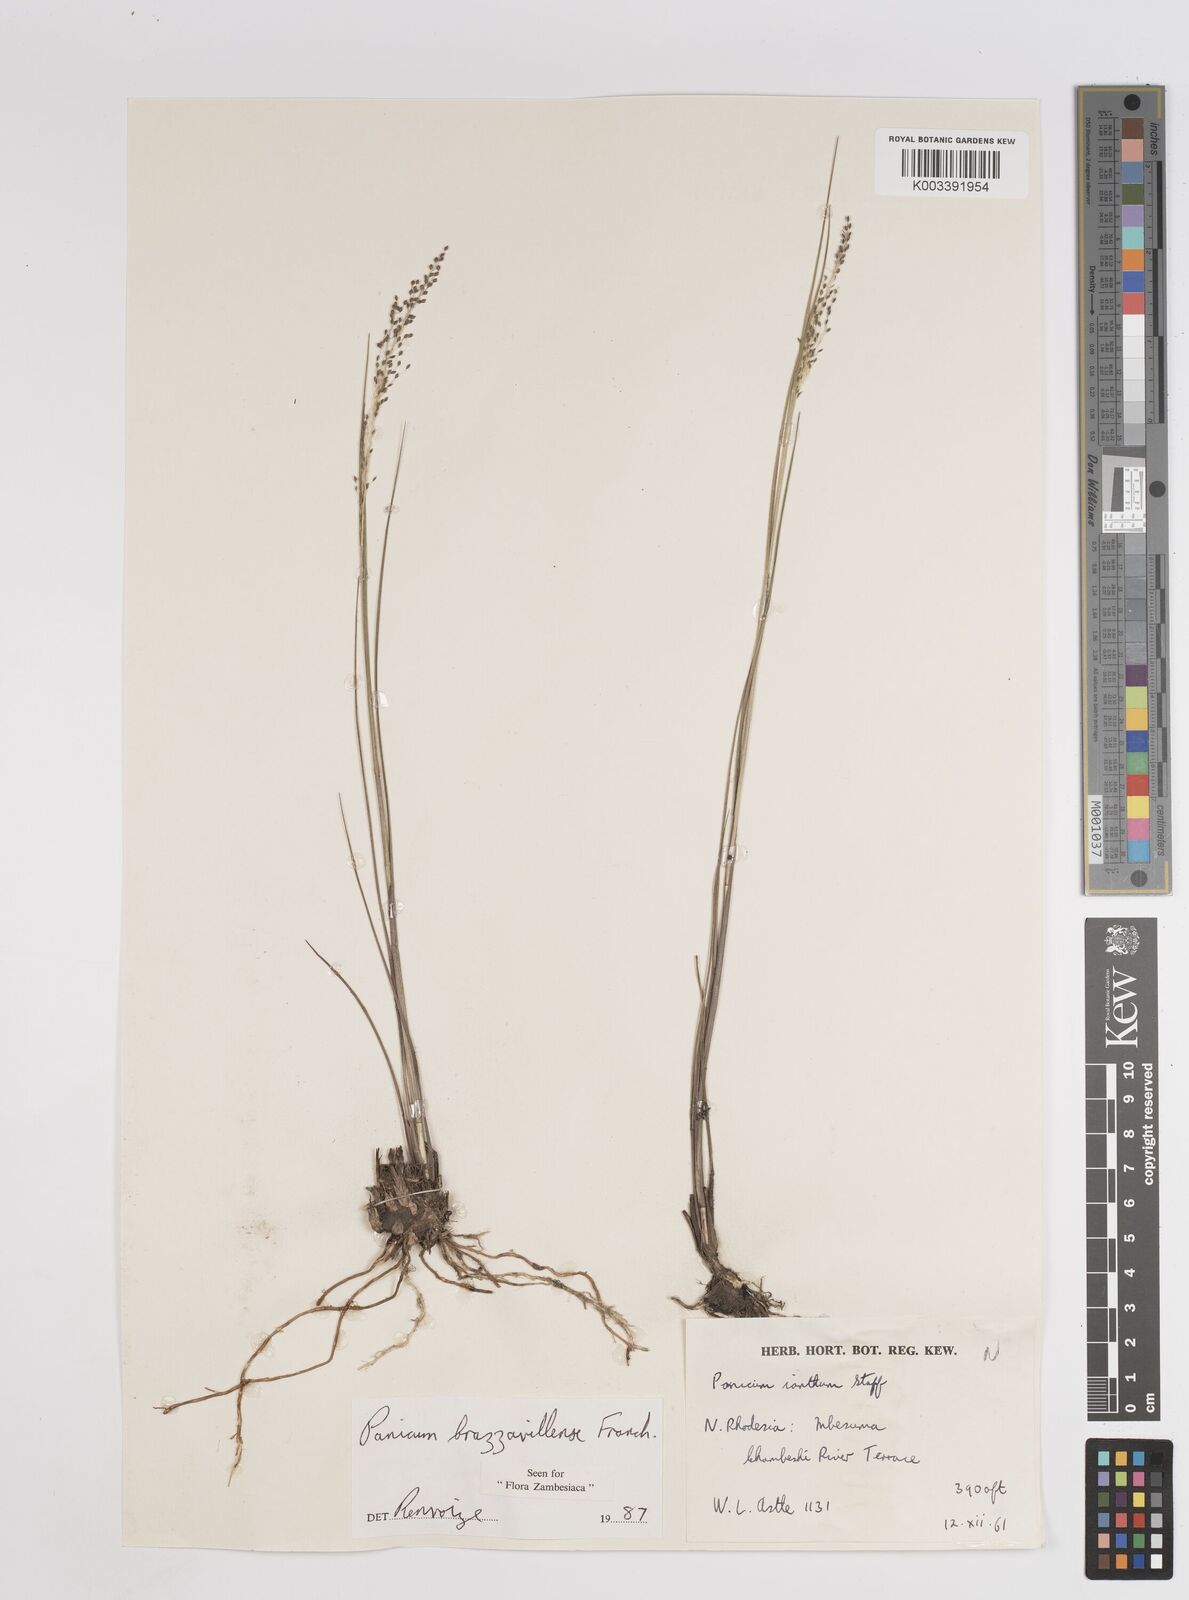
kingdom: Plantae
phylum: Tracheophyta
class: Liliopsida
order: Poales
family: Poaceae
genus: Trichanthecium
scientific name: Trichanthecium brazzavillense
